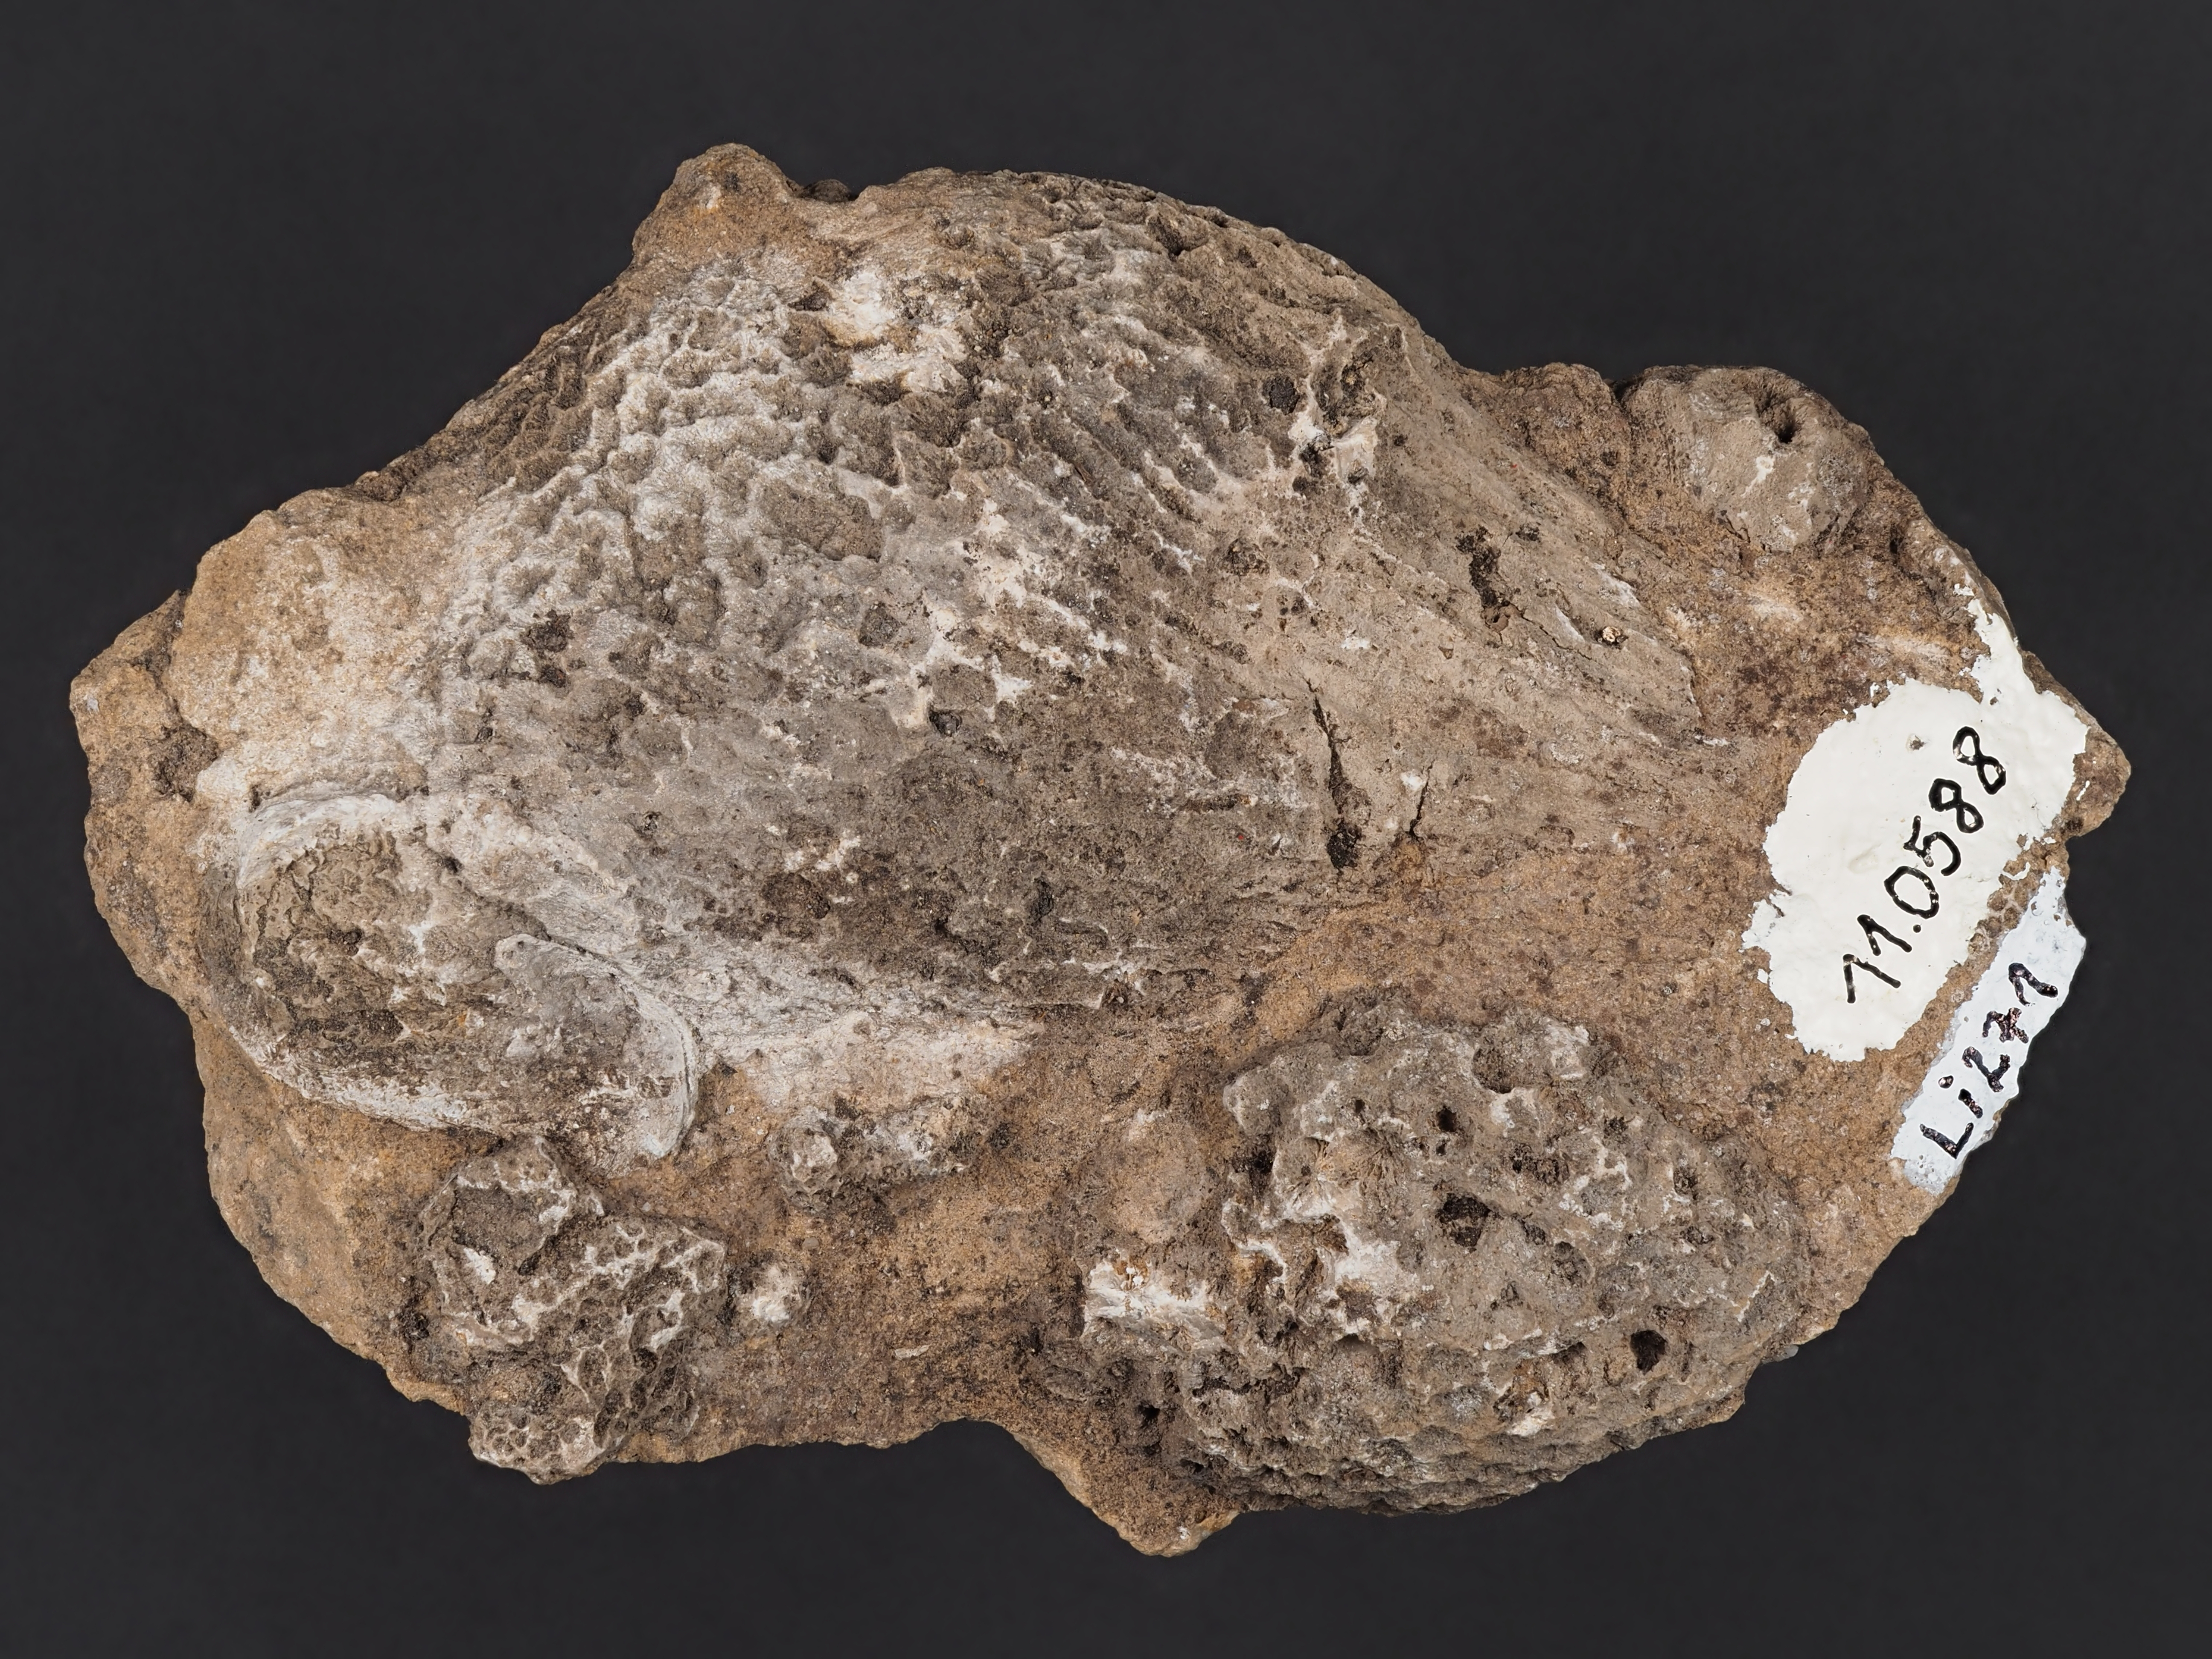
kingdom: Animalia
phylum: Cnidaria
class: Anthozoa
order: Scleractinia
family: Thecosmiliidae
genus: Isastrea
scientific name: Isastrea
